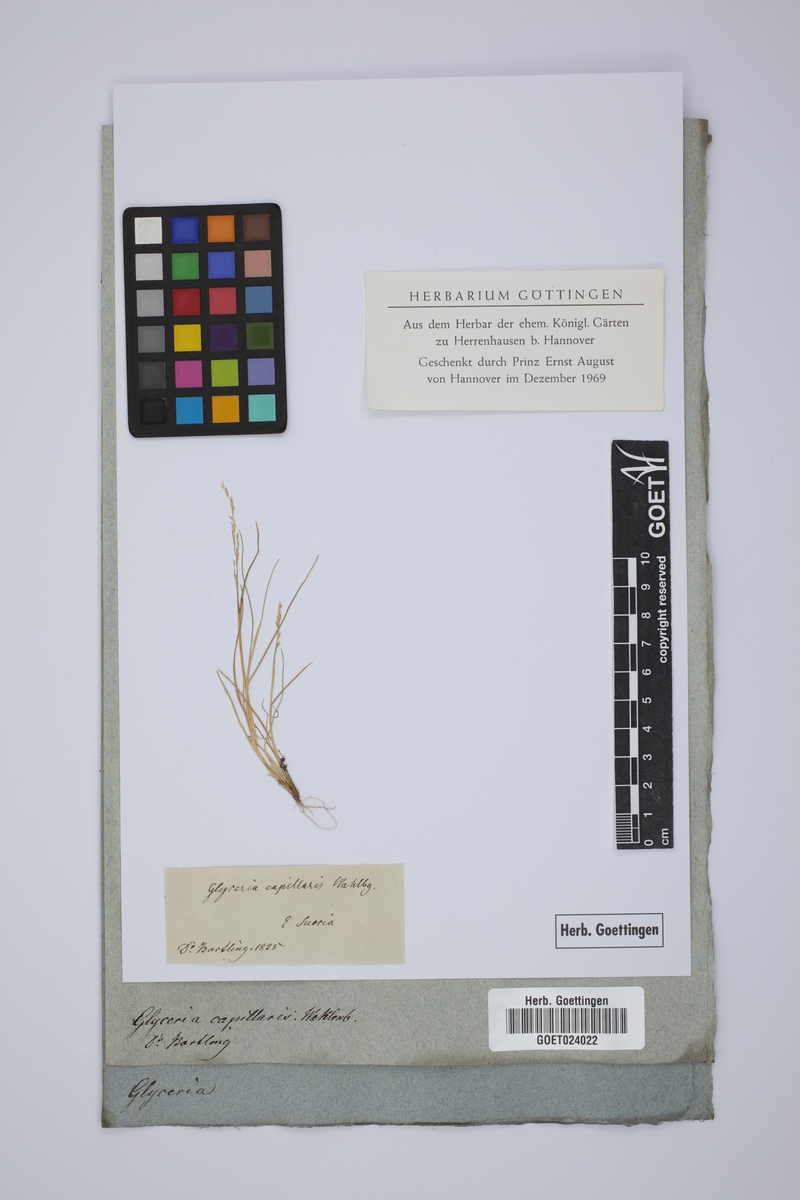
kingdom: Plantae
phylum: Tracheophyta
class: Liliopsida
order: Poales
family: Poaceae
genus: Puccinellia
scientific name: Puccinellia distans
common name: Weeping alkaligrass
